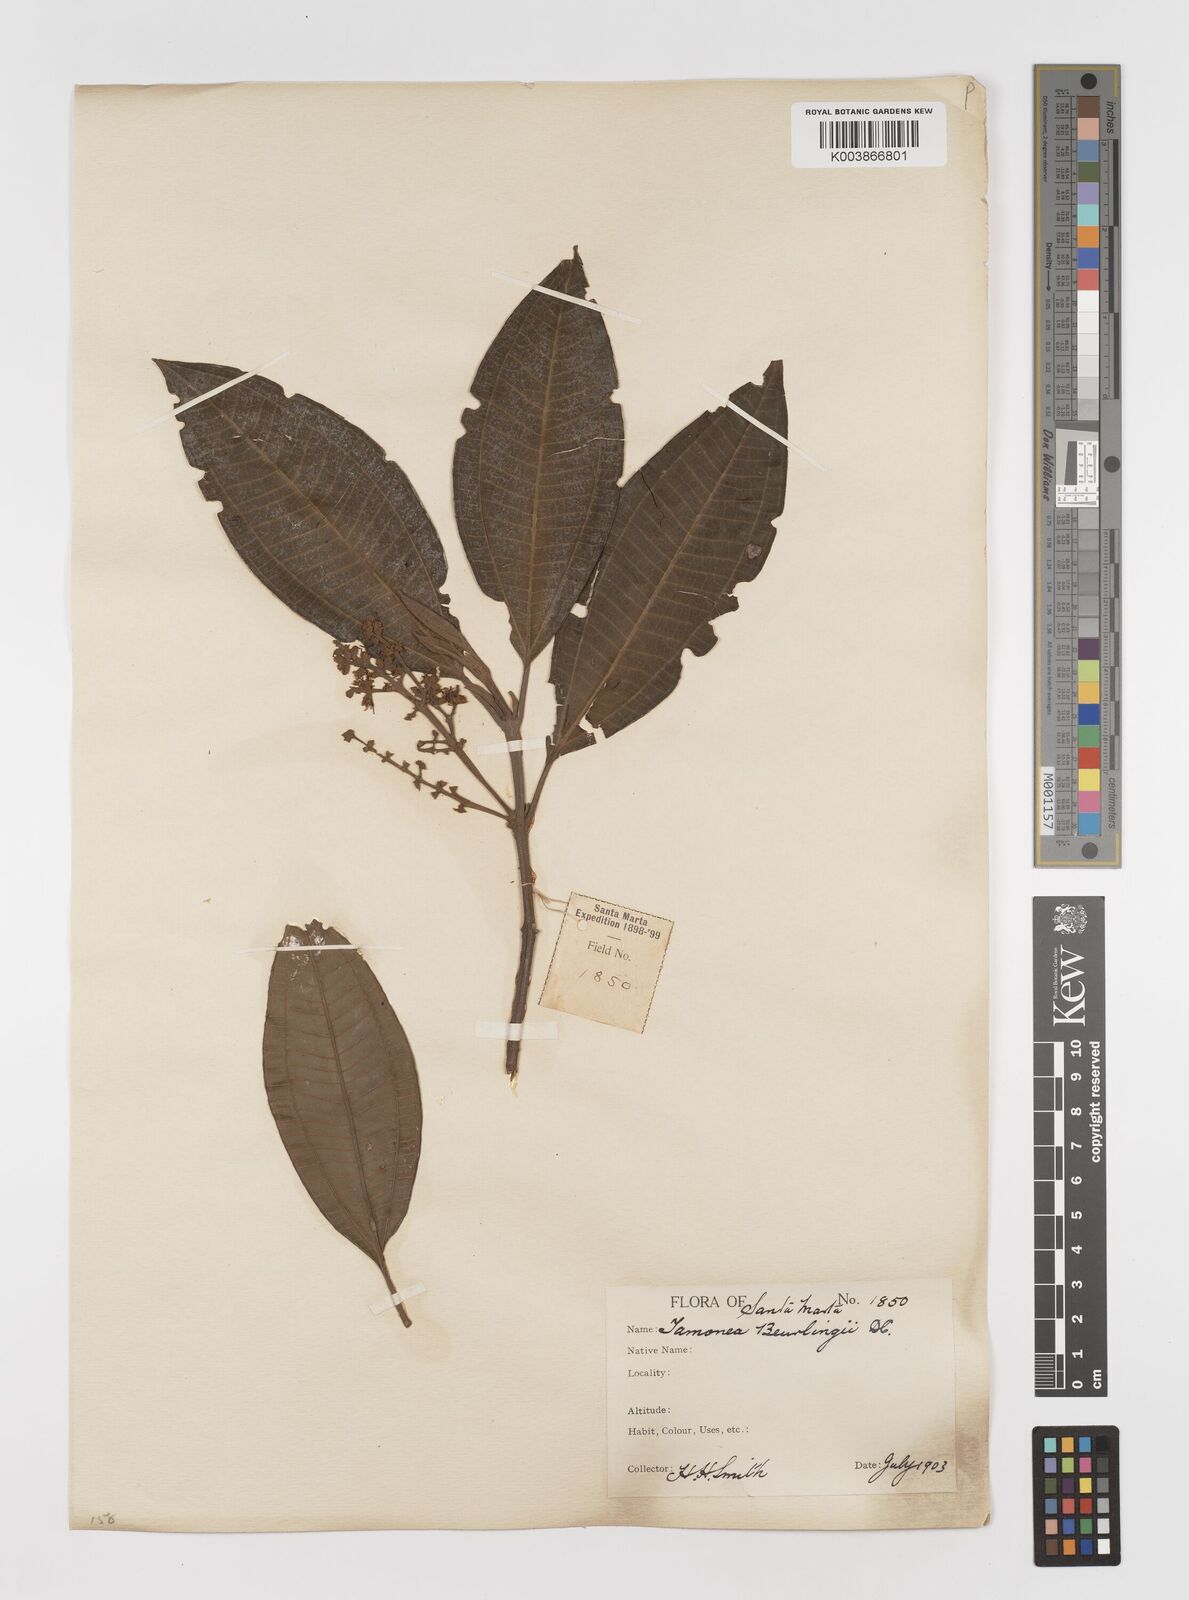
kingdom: Plantae
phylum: Tracheophyta
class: Magnoliopsida
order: Myrtales
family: Melastomataceae
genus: Miconia
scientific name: Miconia
